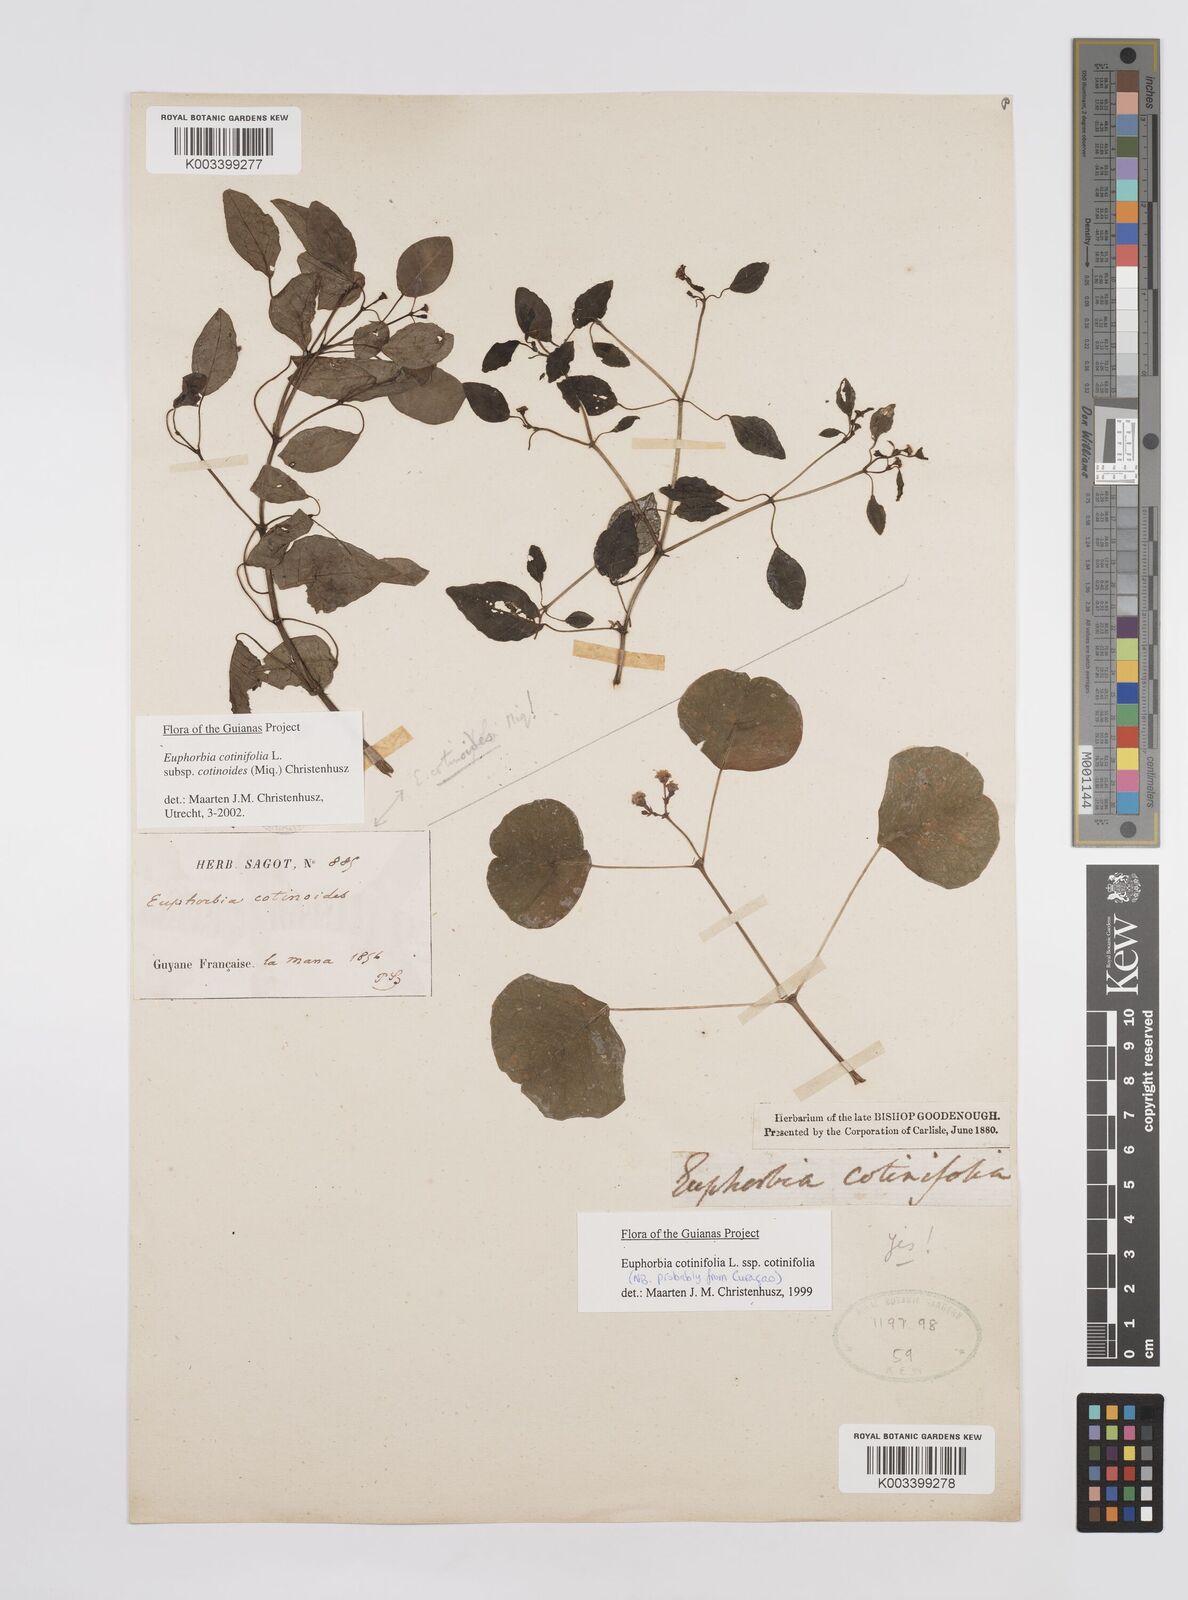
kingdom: Plantae
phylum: Tracheophyta
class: Magnoliopsida
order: Malpighiales
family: Euphorbiaceae
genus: Euphorbia
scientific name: Euphorbia cotinifolia
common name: Tropical smokebush
